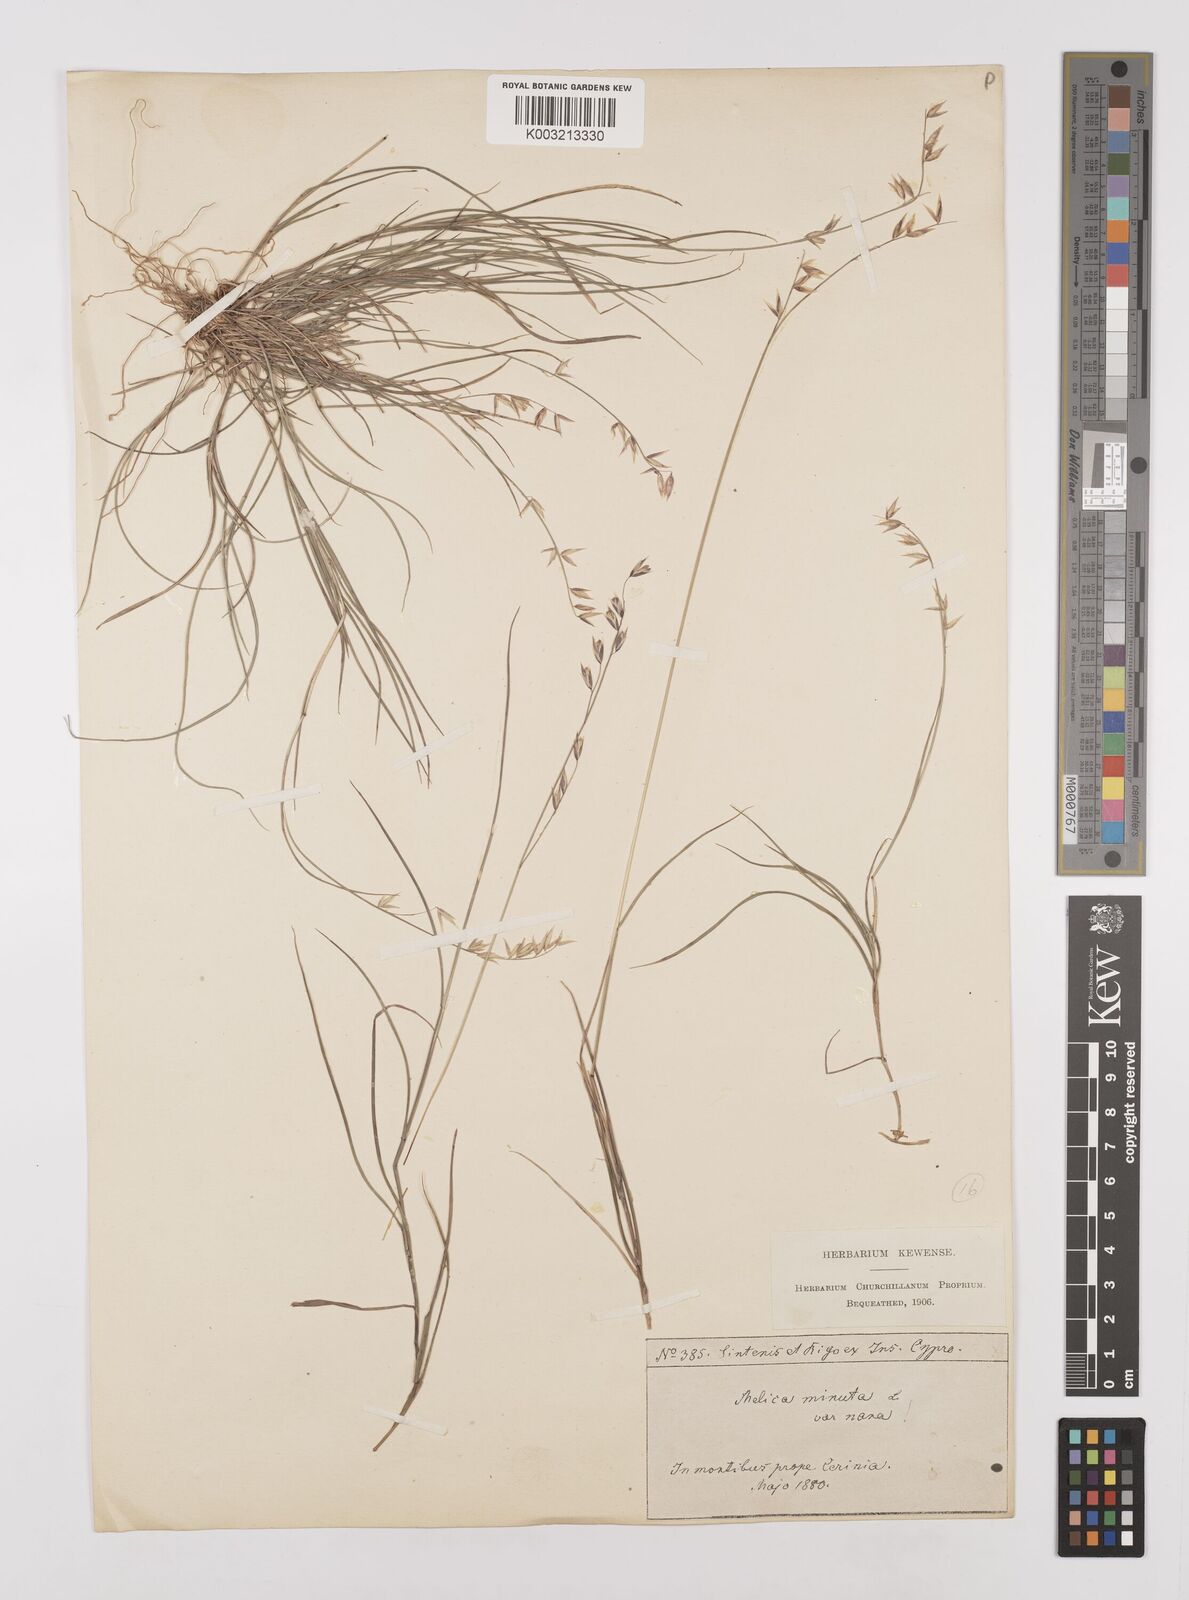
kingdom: Plantae
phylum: Tracheophyta
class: Liliopsida
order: Poales
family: Poaceae
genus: Melica
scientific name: Melica minuta
